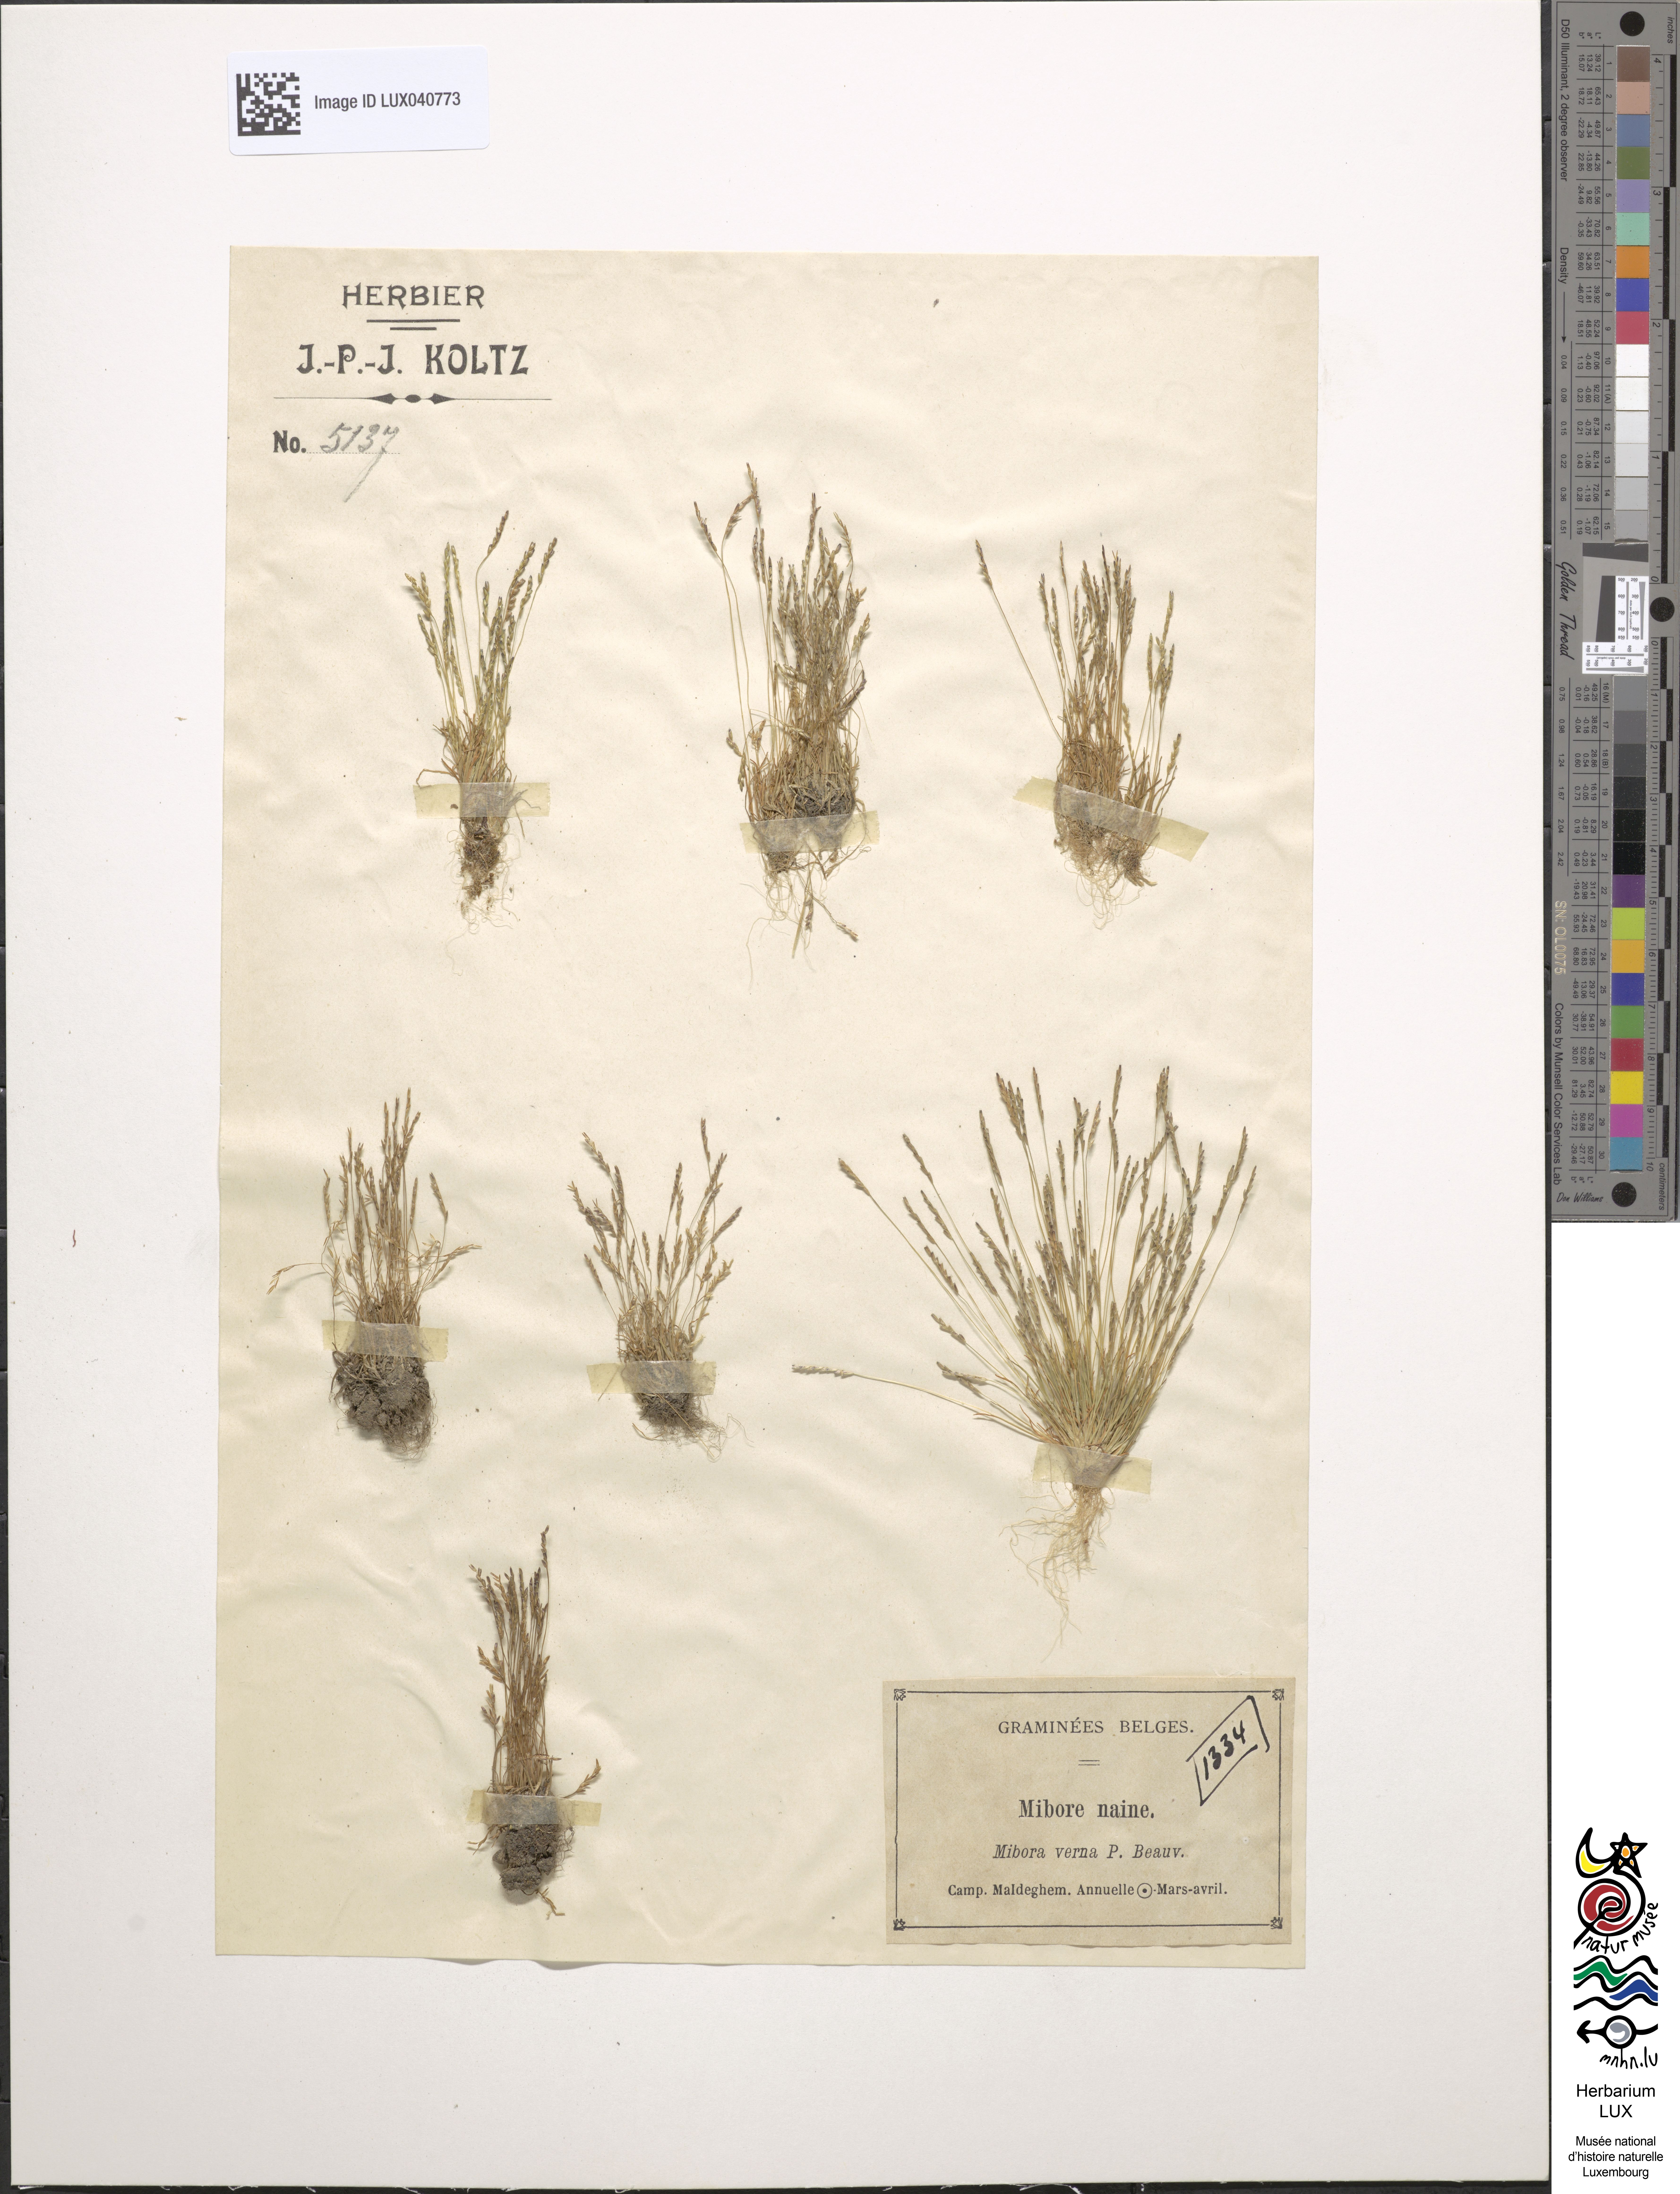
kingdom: Plantae
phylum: Tracheophyta
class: Liliopsida
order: Poales
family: Poaceae
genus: Mibora
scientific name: Mibora minima
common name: Early sand-grass
